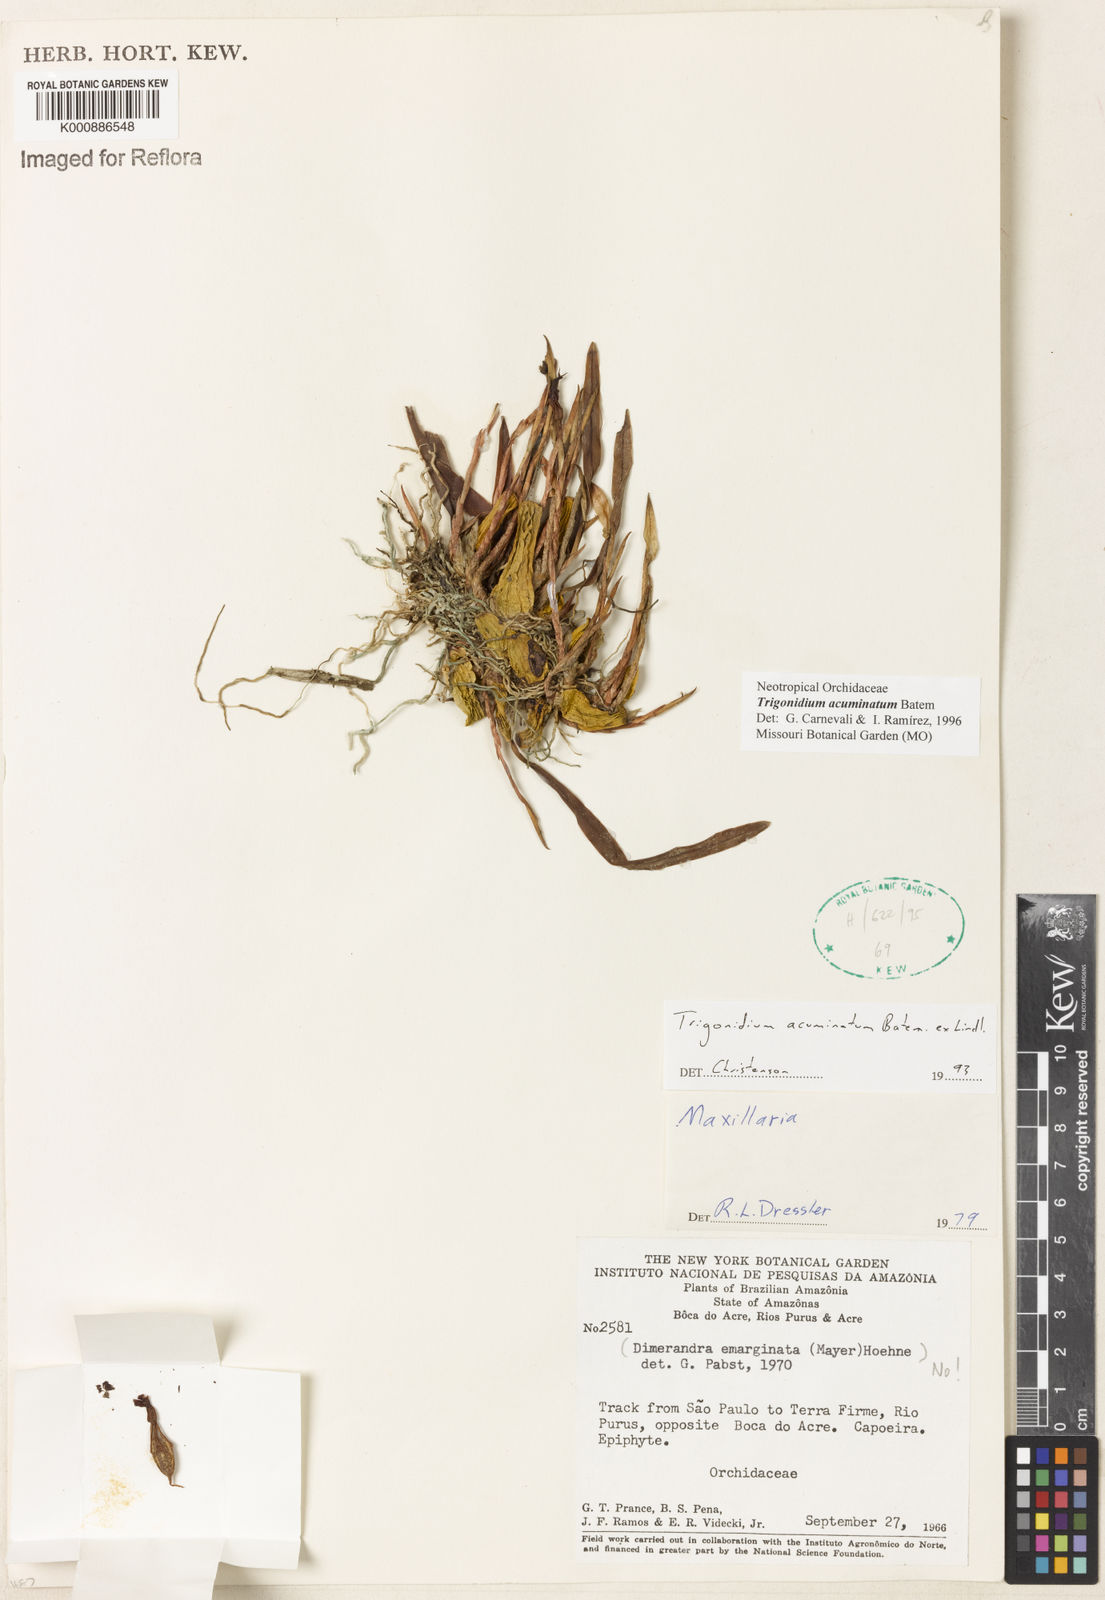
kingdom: Animalia
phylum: Arthropoda
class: Insecta
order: Orthoptera
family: Trigonidiidae
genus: Trigonidium
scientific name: Trigonidium
